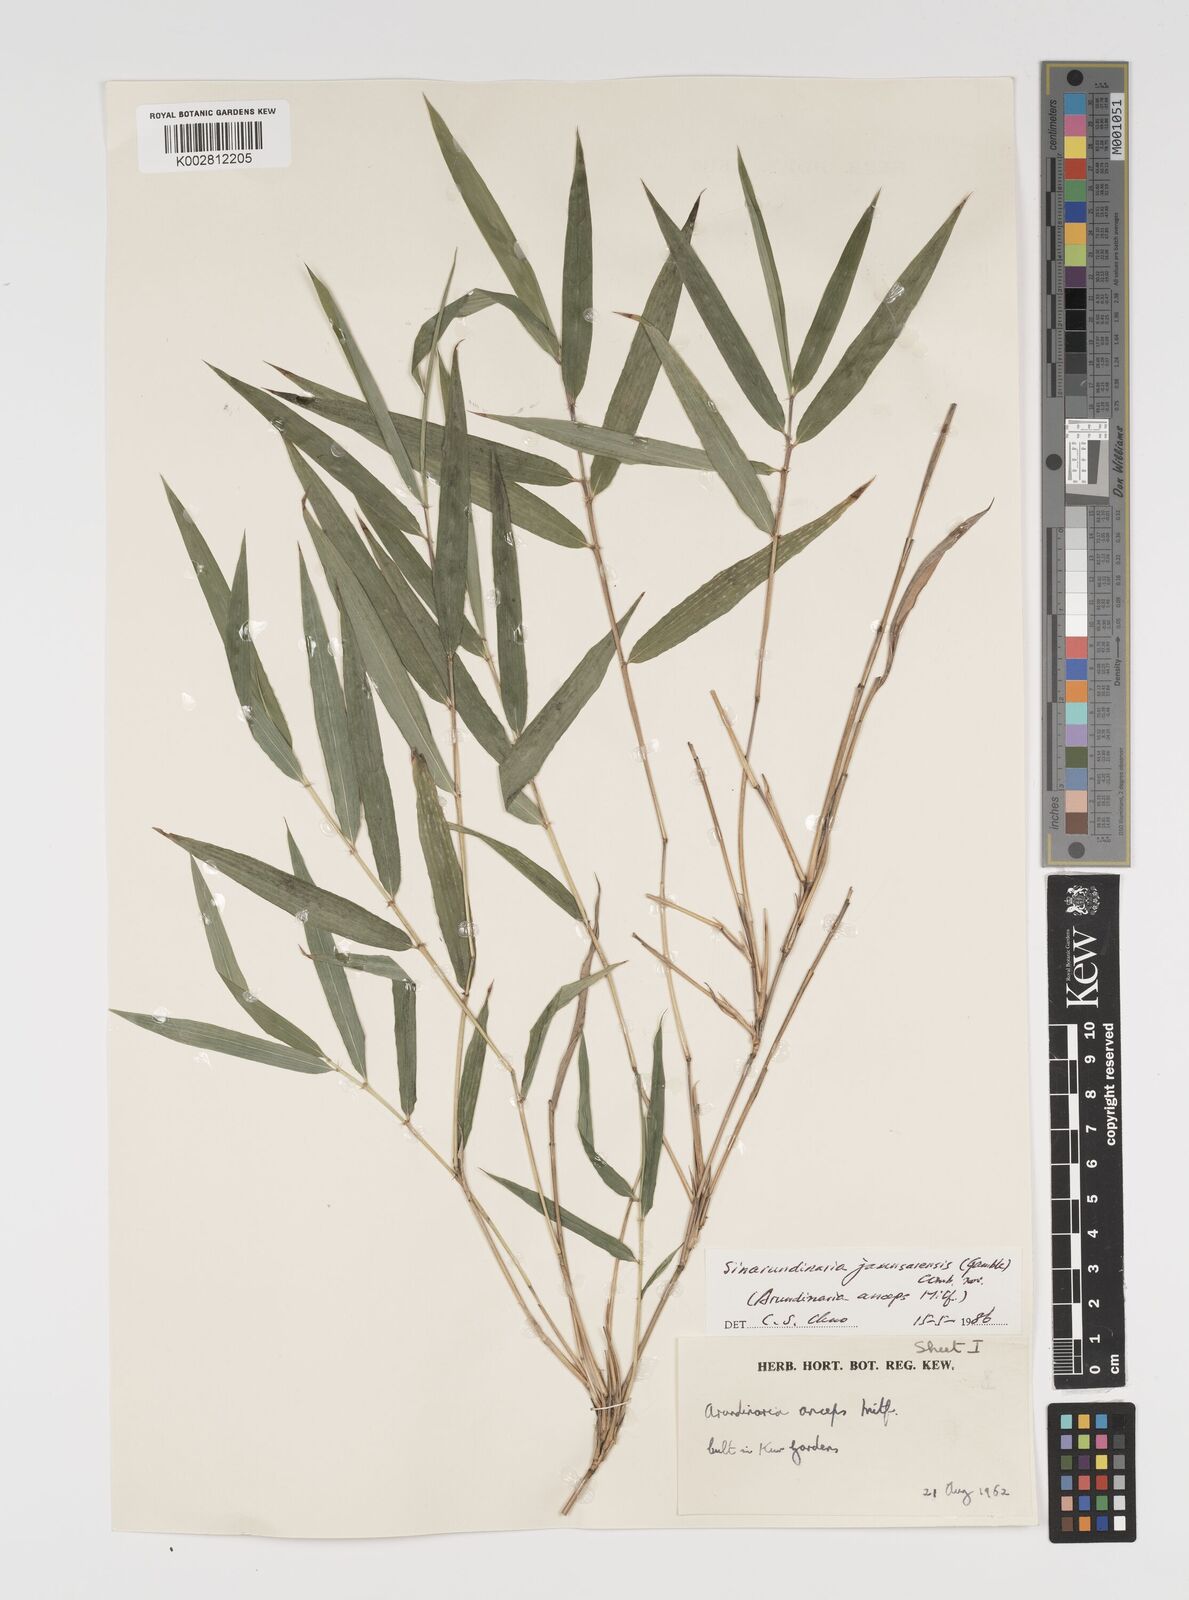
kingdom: Plantae
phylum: Tracheophyta
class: Liliopsida
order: Poales
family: Poaceae
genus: Yushania
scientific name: Yushania anceps
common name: Indian fountain-bamboo
